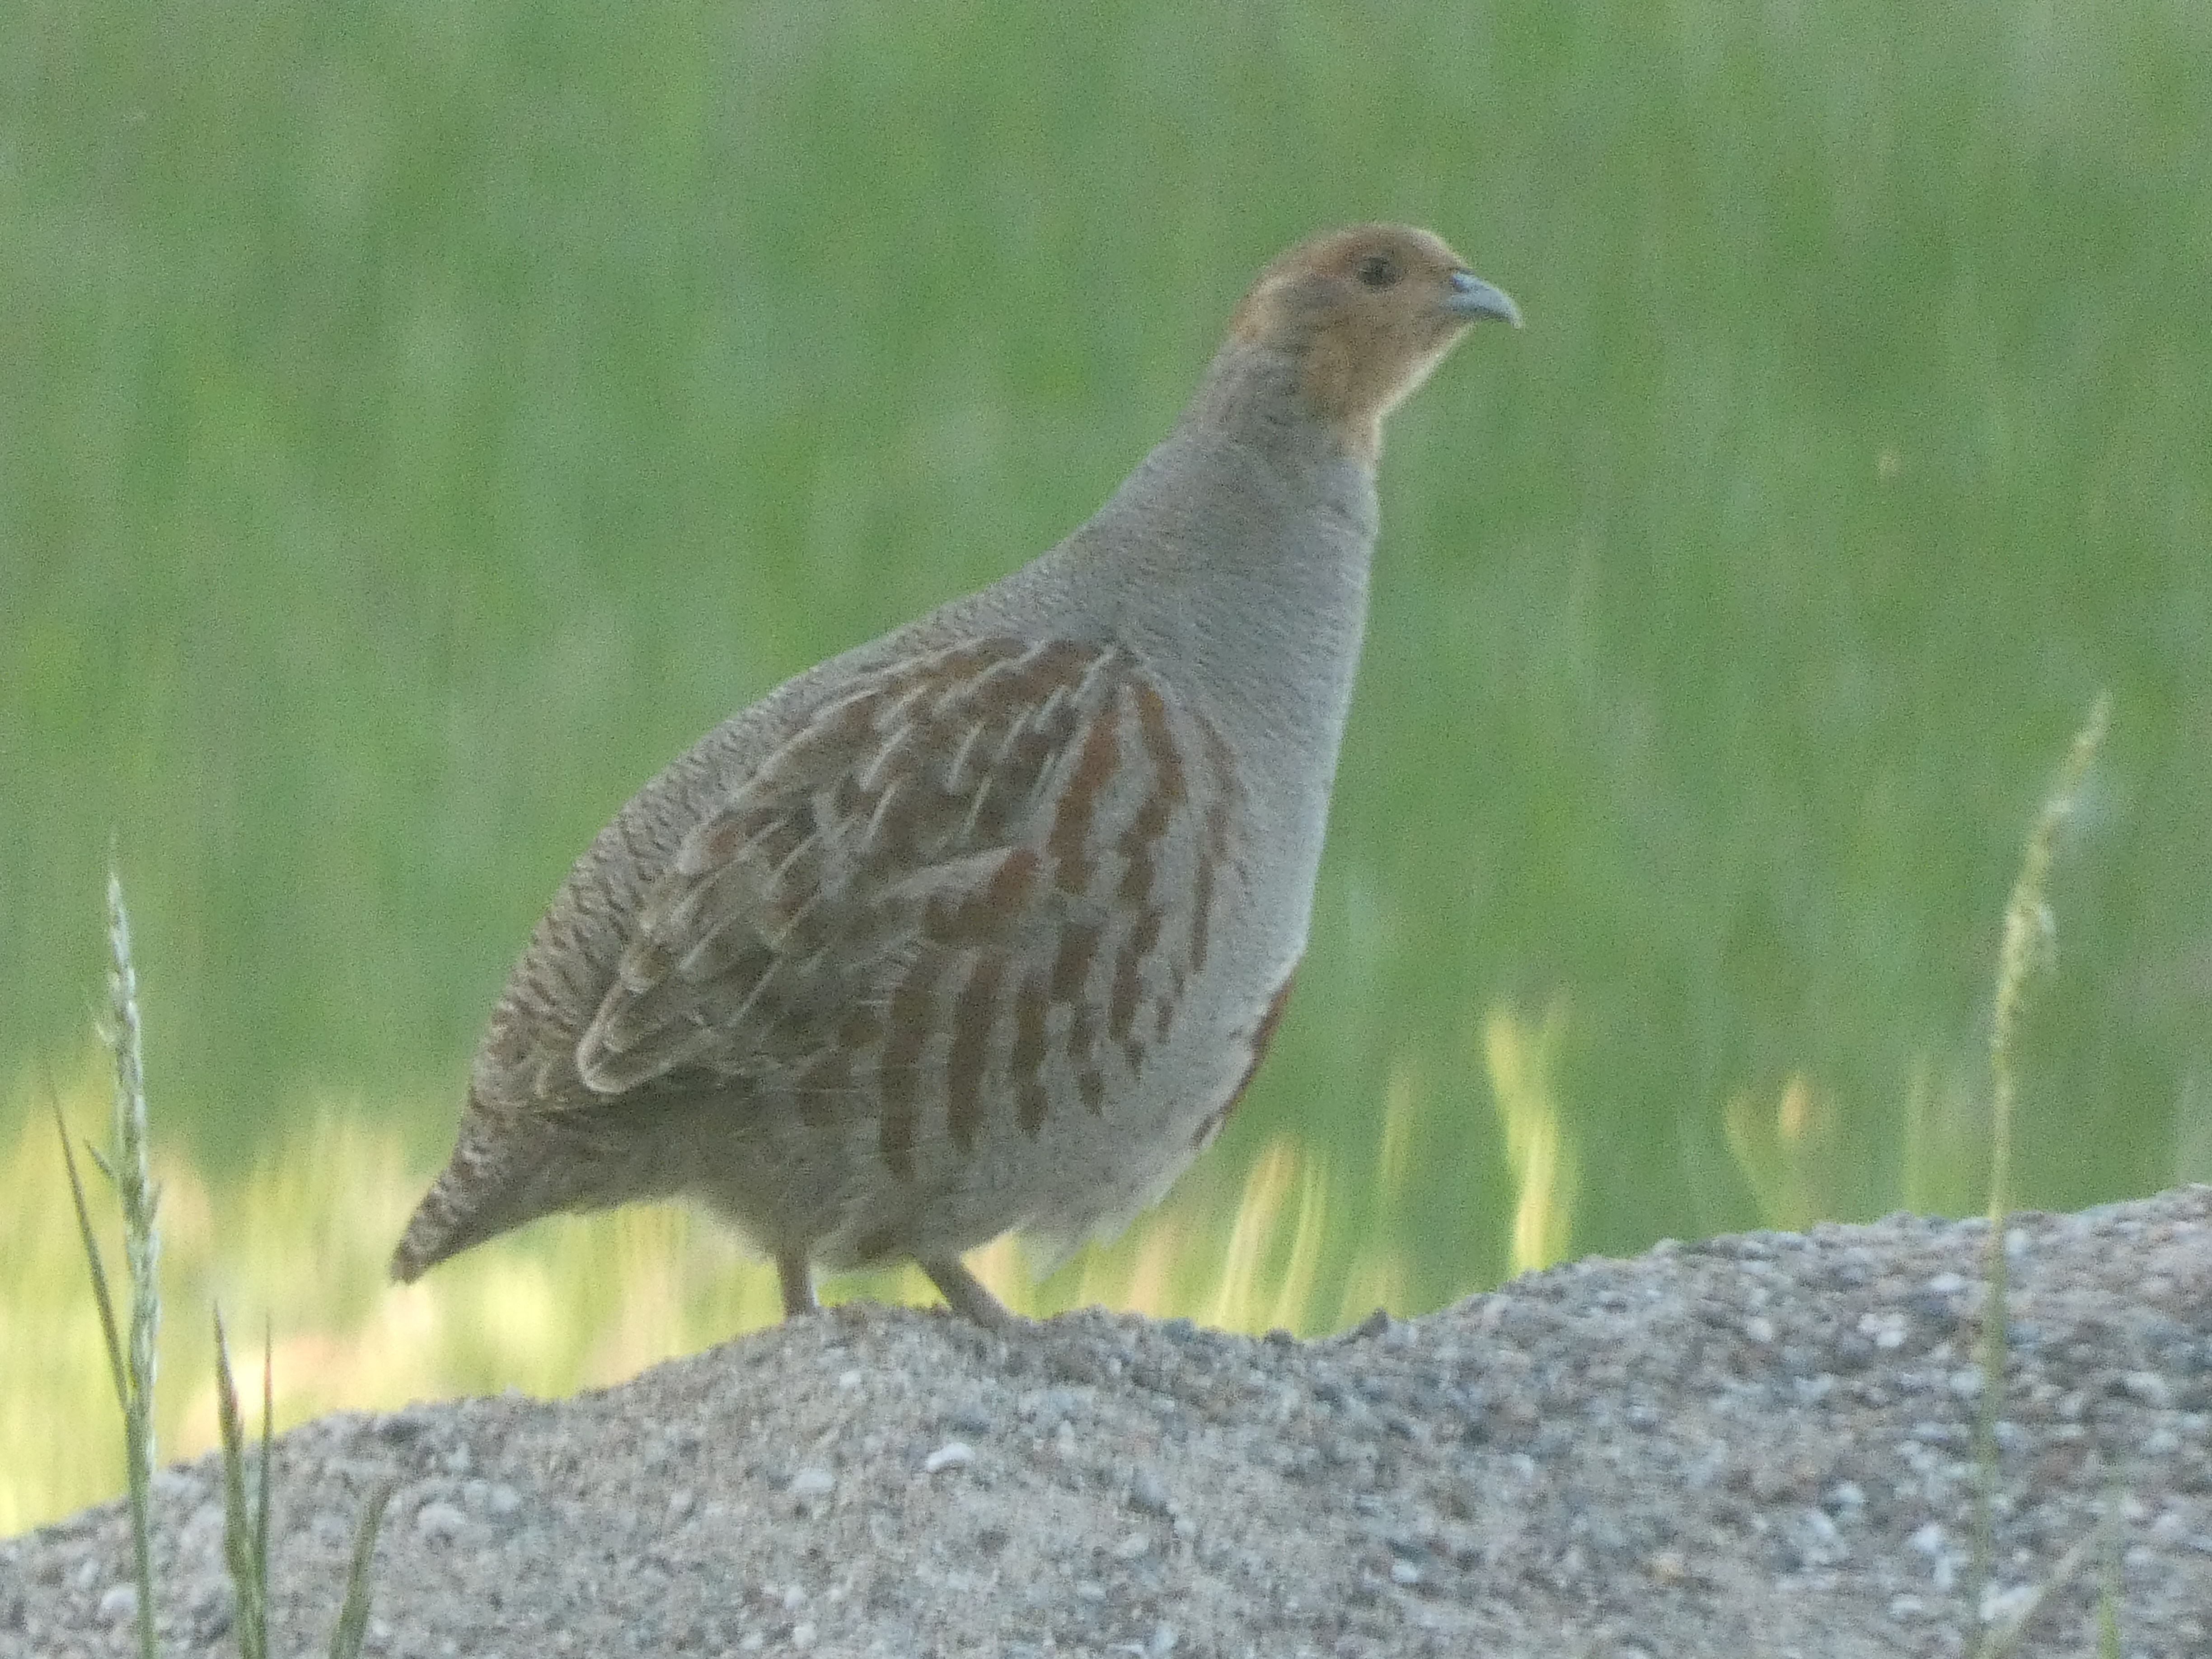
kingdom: Animalia
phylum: Chordata
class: Aves
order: Galliformes
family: Phasianidae
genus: Perdix
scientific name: Perdix perdix
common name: Agerhøne
